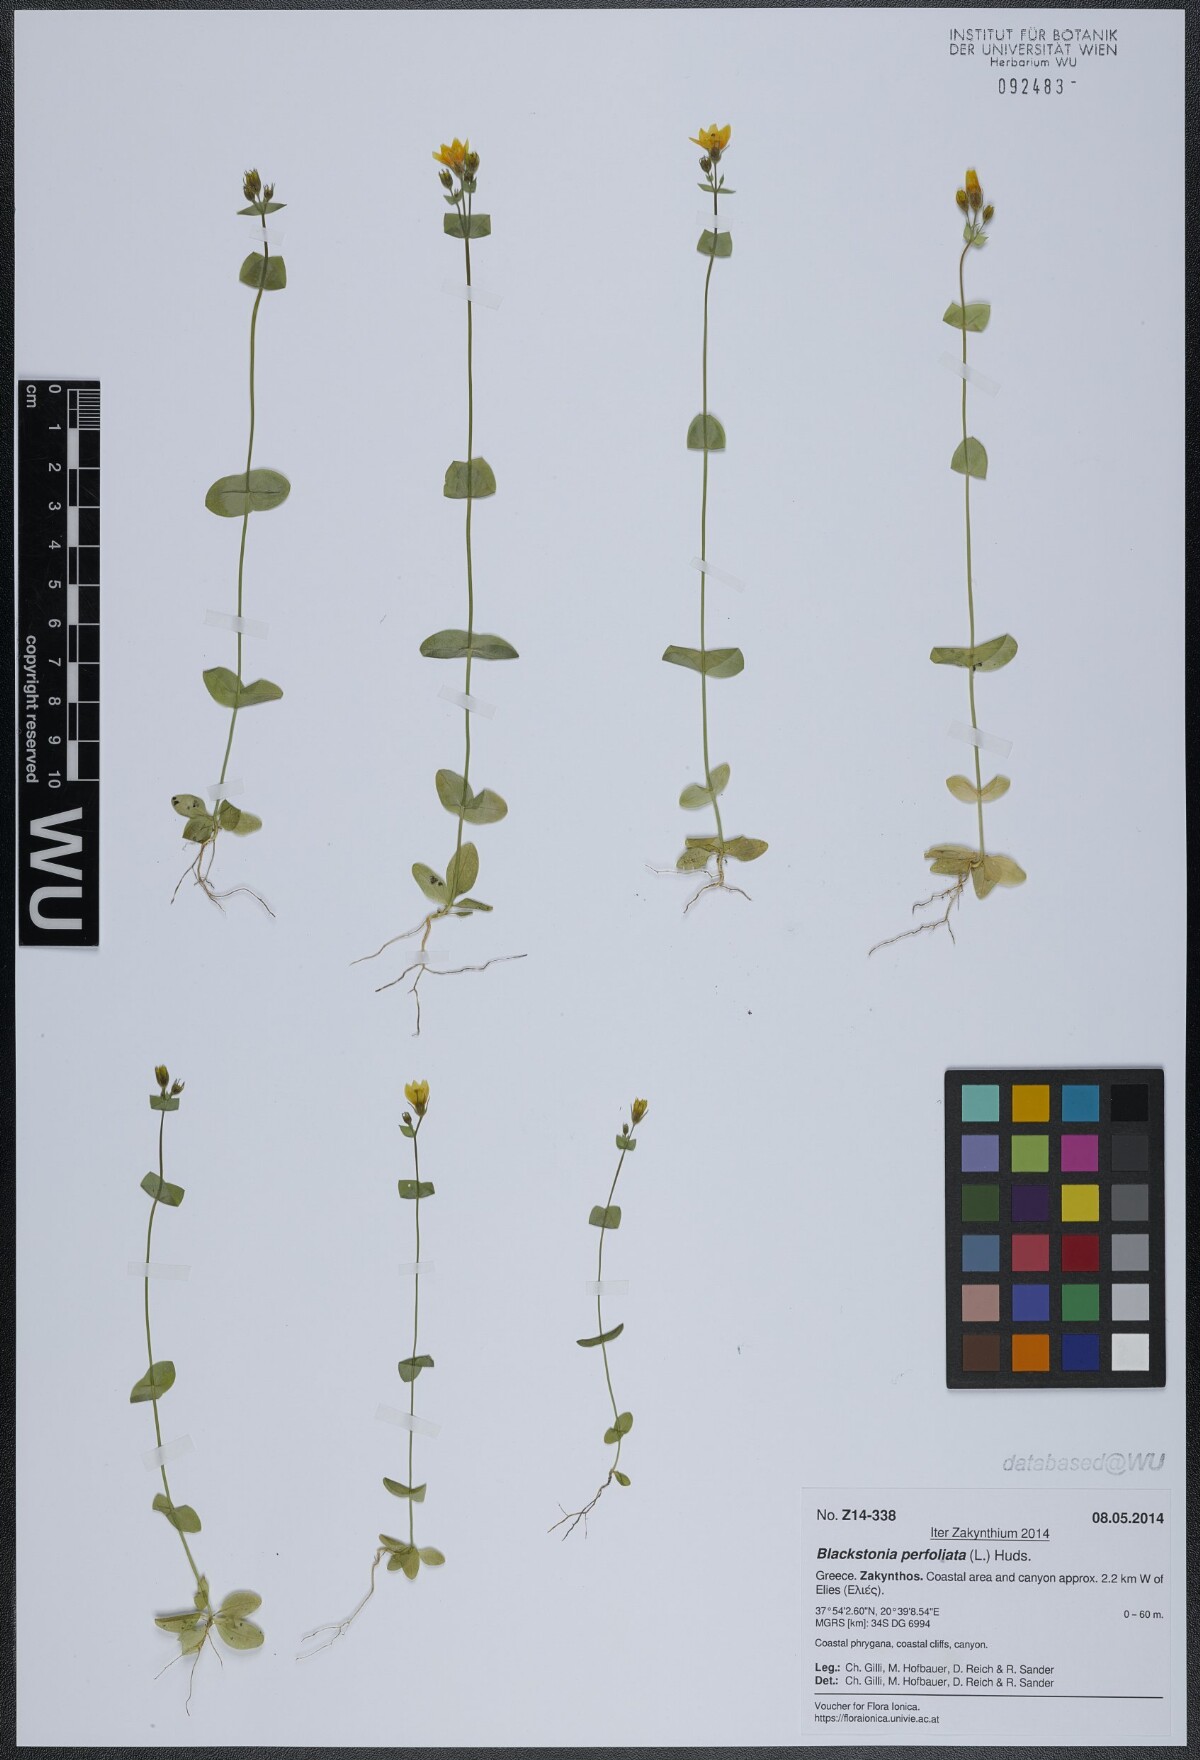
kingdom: Plantae
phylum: Tracheophyta
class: Magnoliopsida
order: Gentianales
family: Gentianaceae
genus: Blackstonia
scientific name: Blackstonia perfoliata
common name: Yellow-wort
